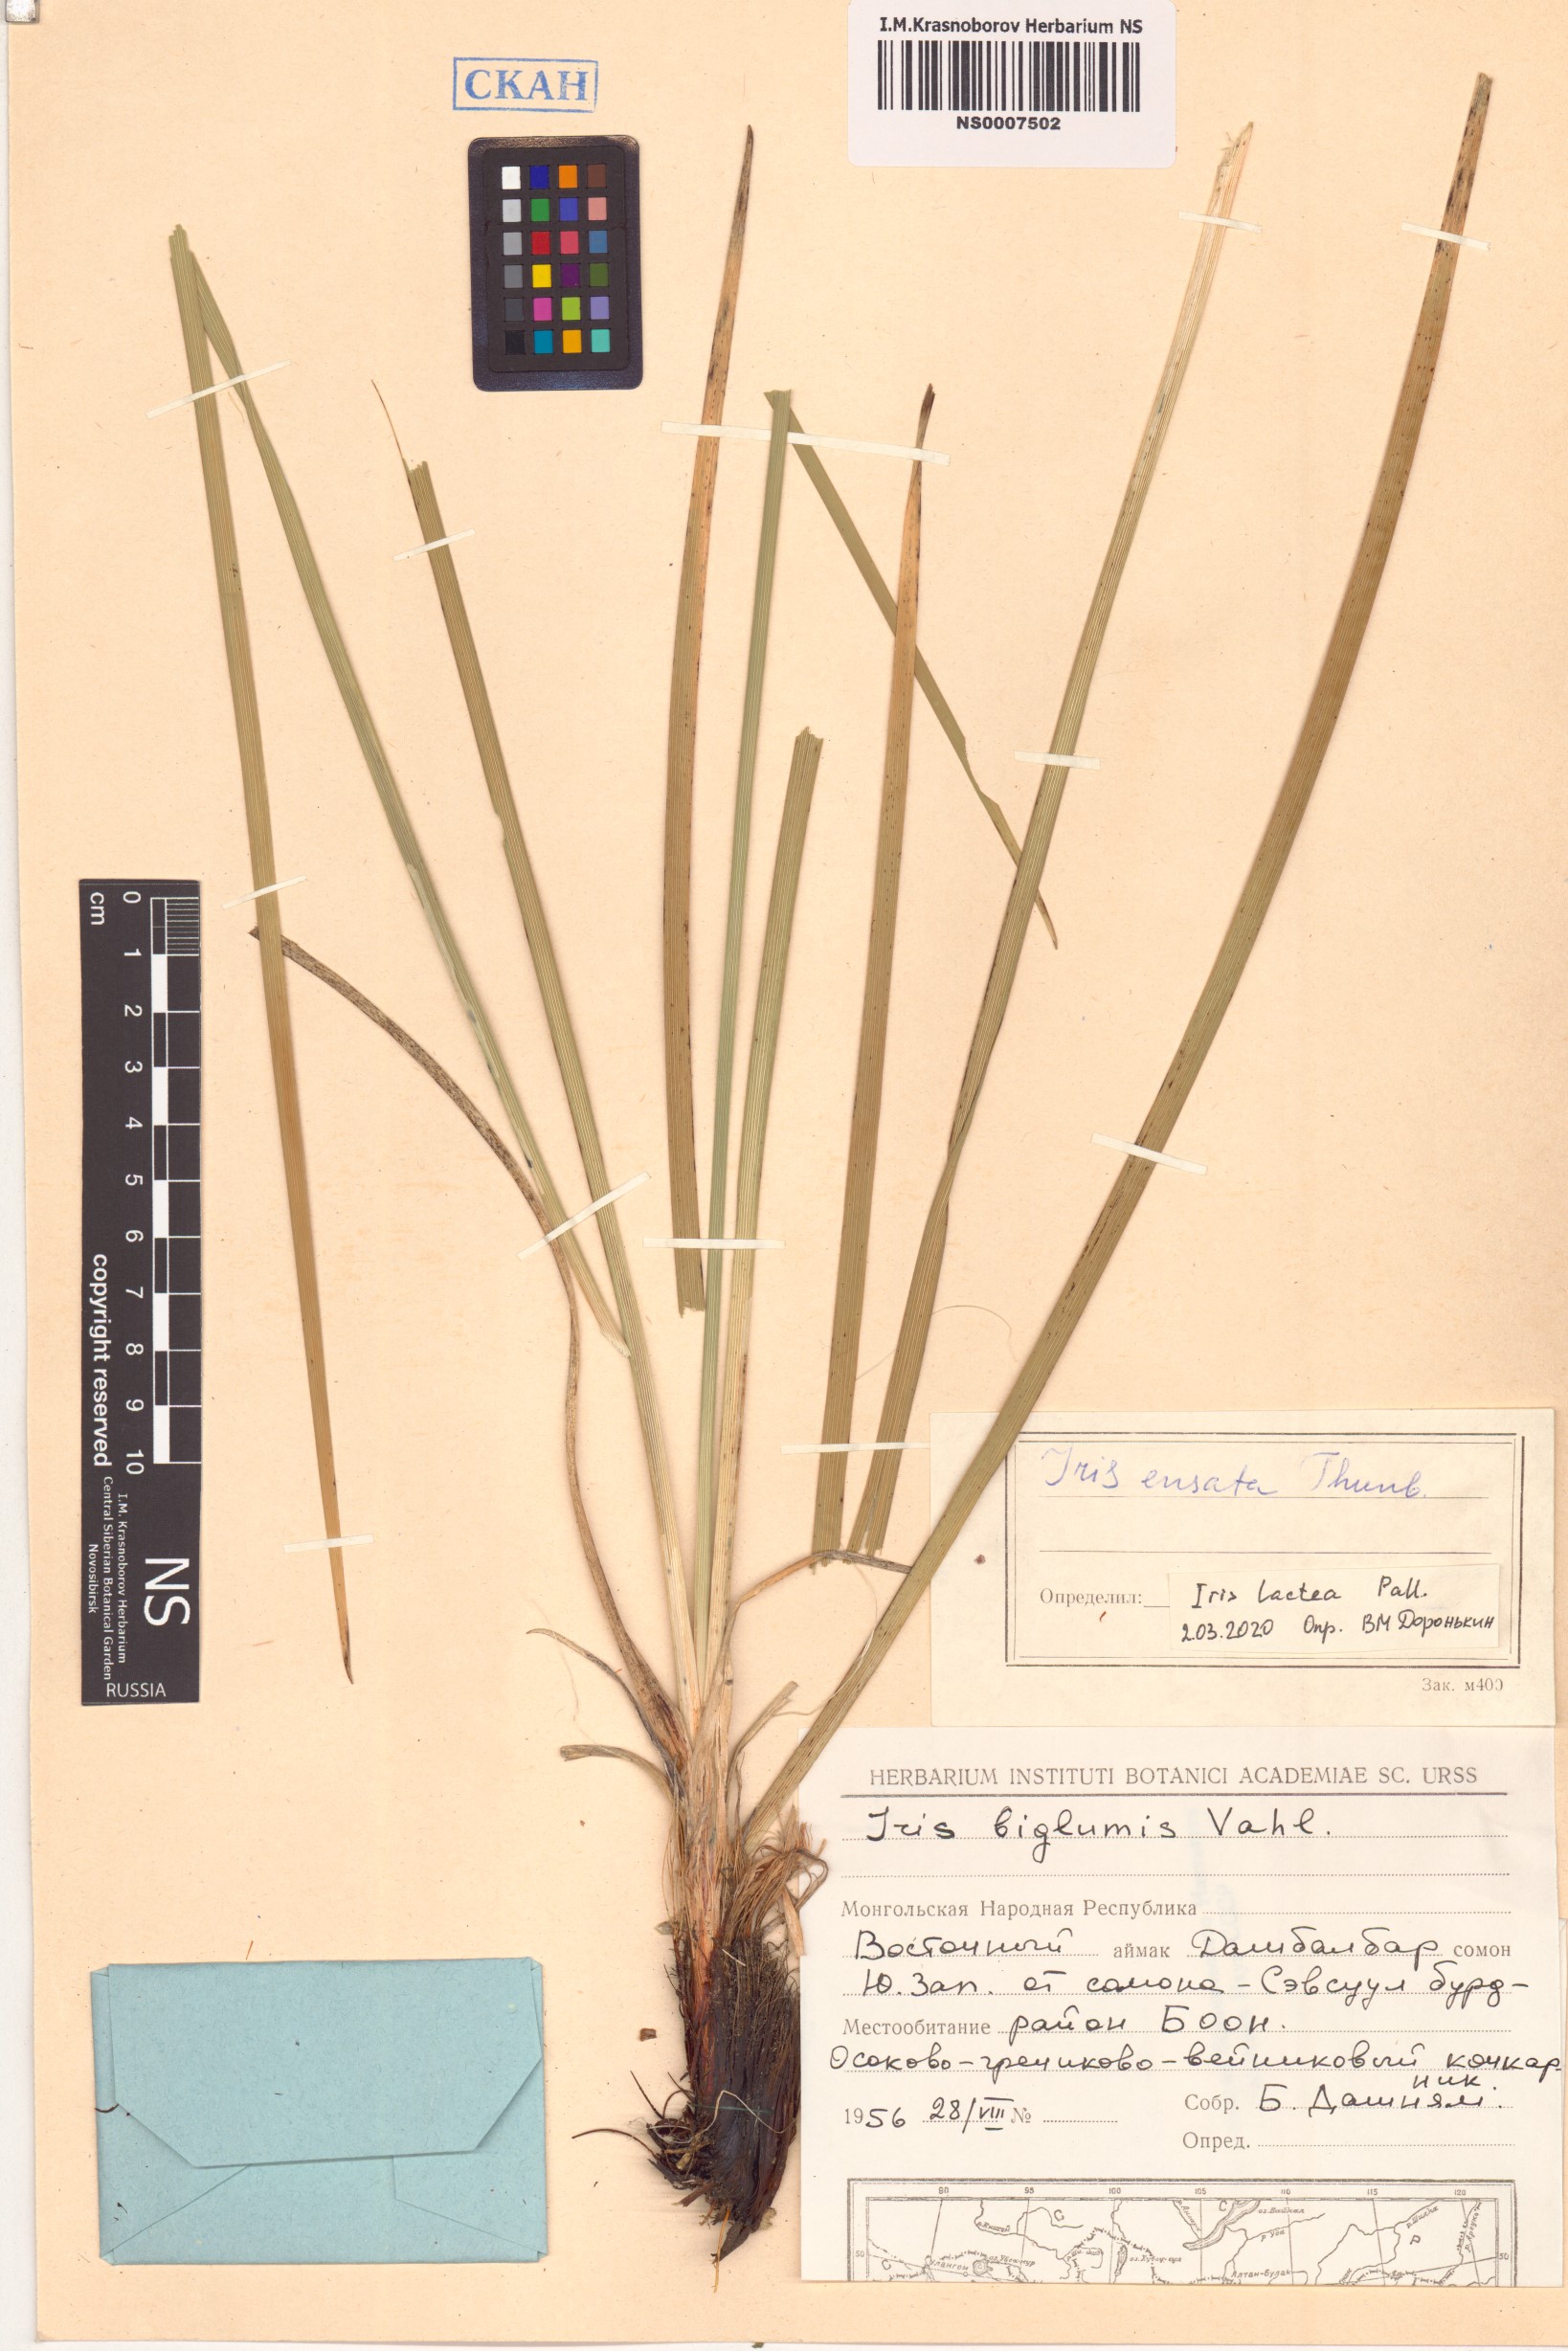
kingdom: Plantae
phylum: Tracheophyta
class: Liliopsida
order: Asparagales
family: Iridaceae
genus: Iris
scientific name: Iris lactea
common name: White-flower chinese iris
